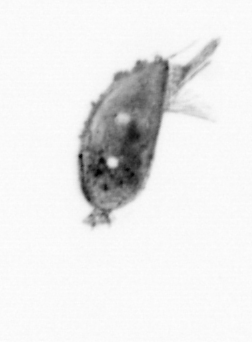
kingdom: Animalia
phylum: Arthropoda
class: Maxillopoda
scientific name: Maxillopoda
